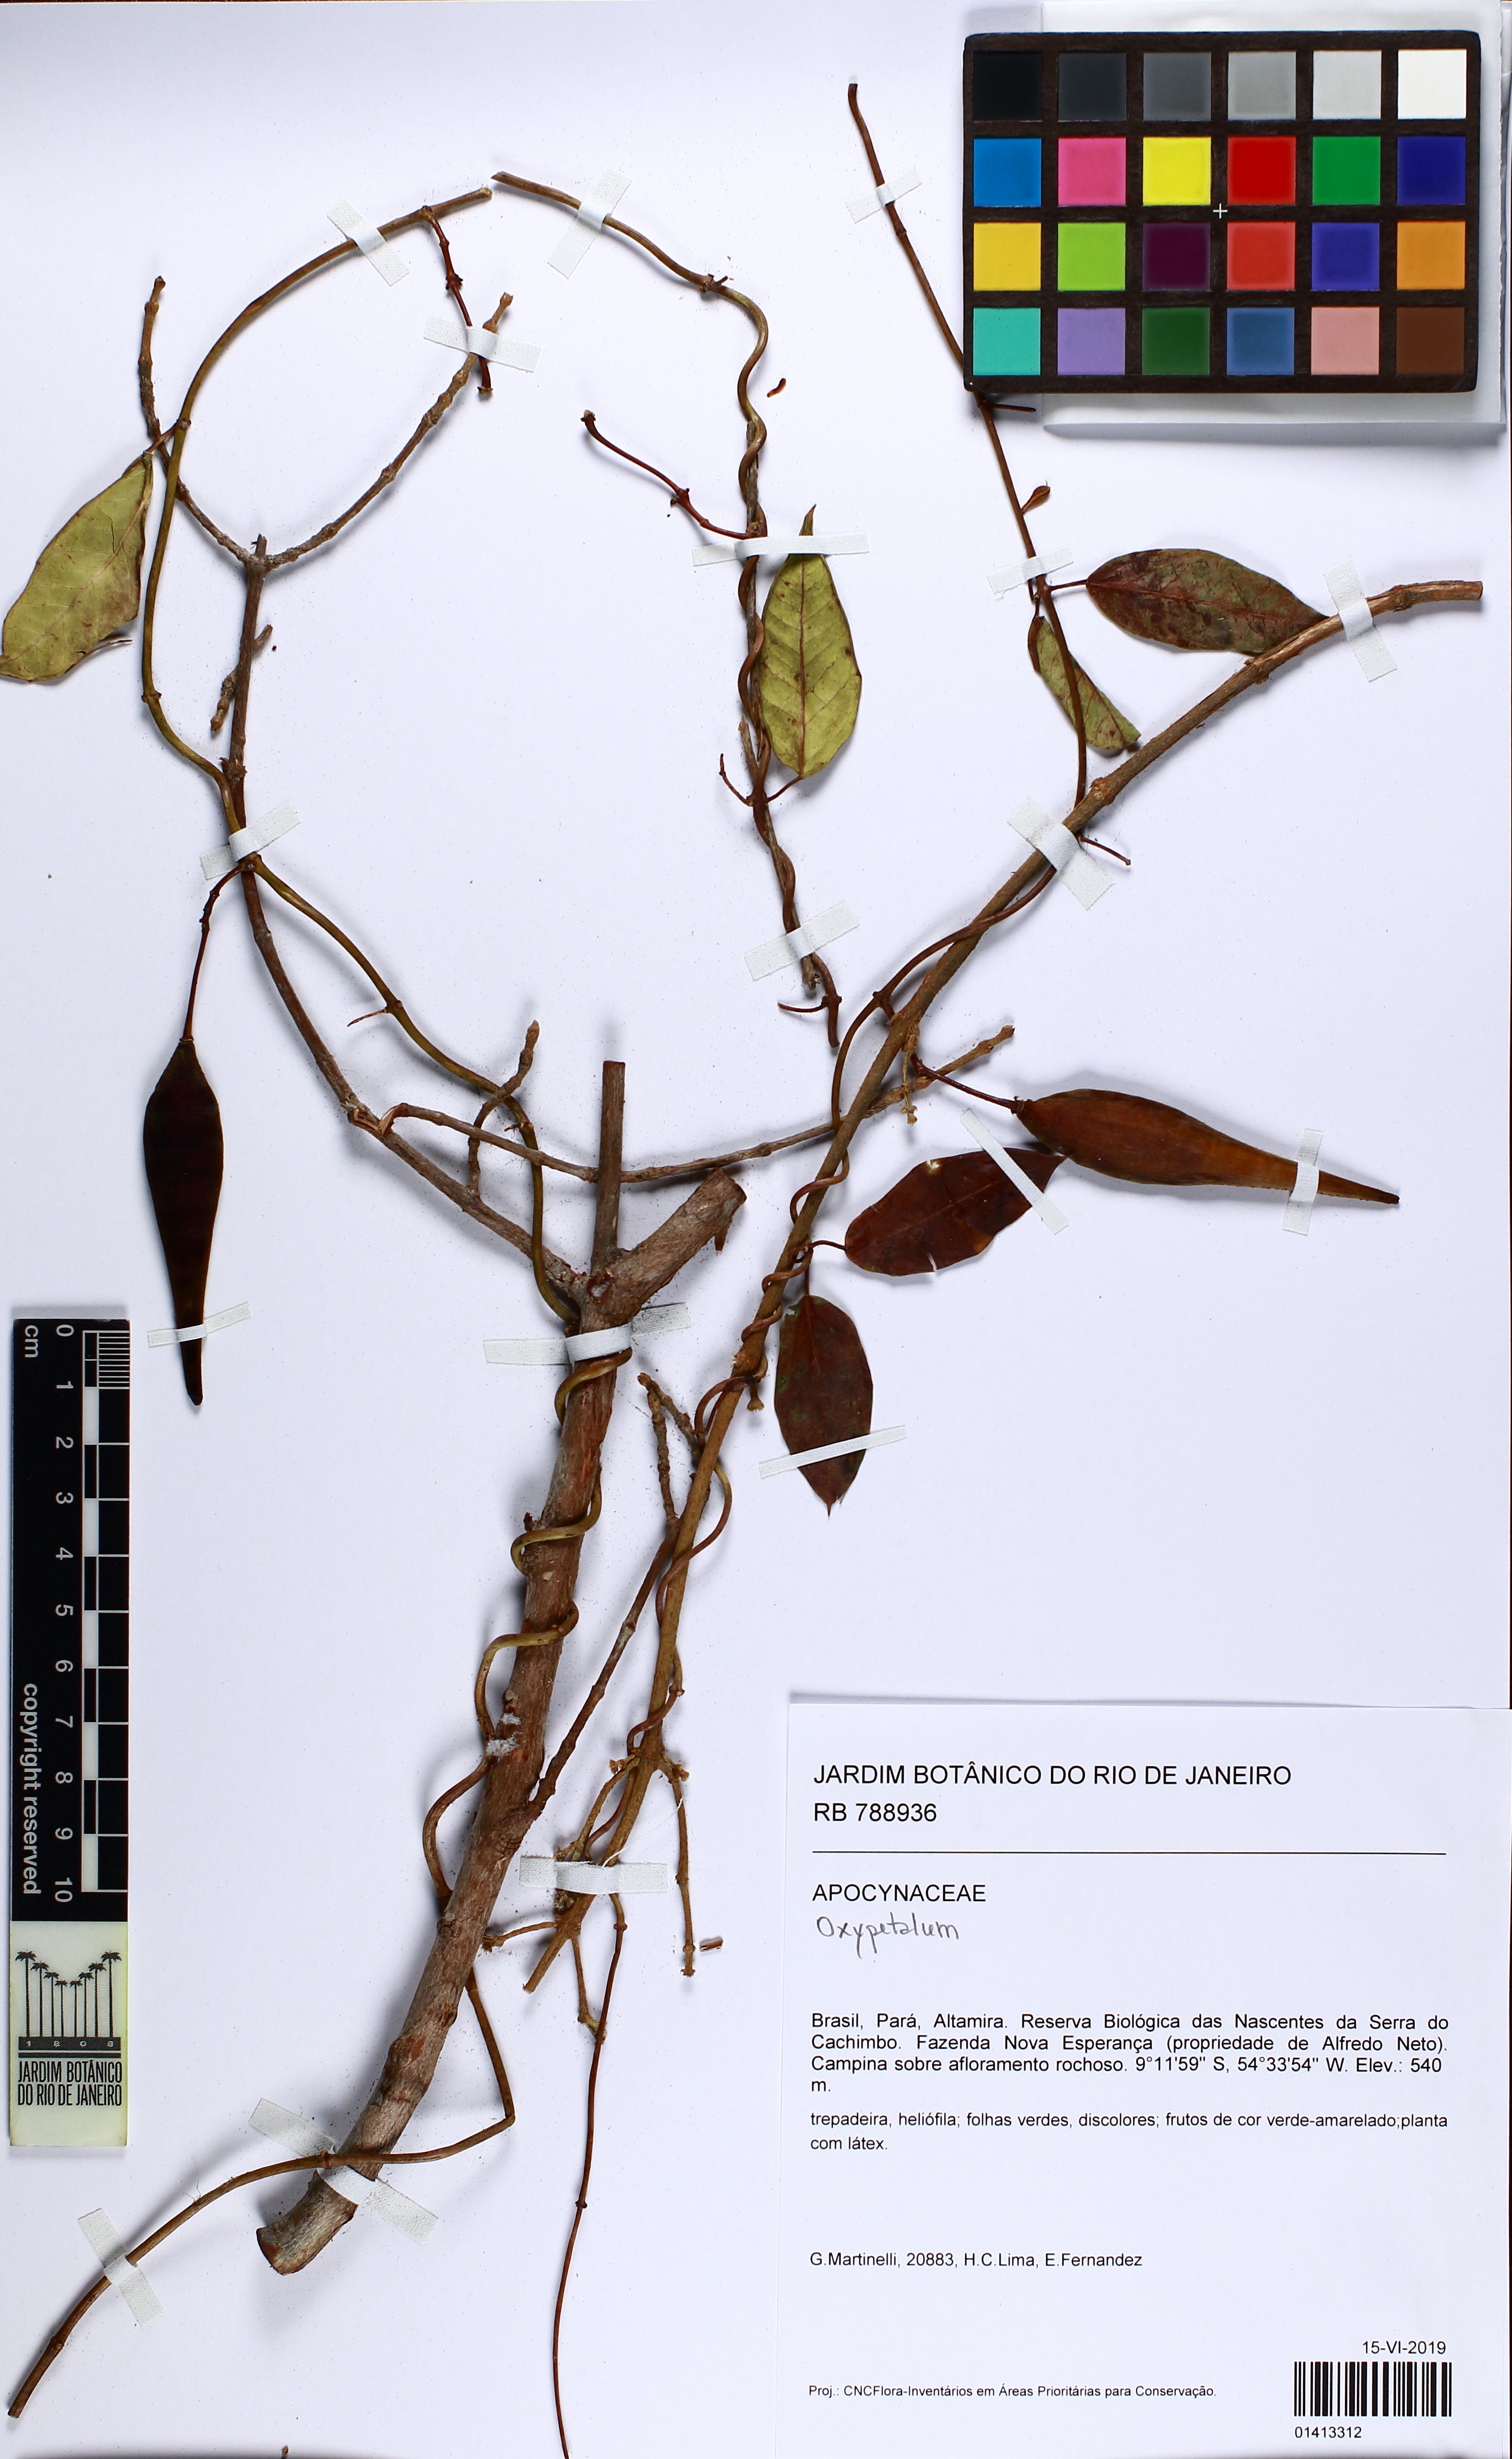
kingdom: Plantae
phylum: Tracheophyta
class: Magnoliopsida
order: Gentianales
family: Apocynaceae
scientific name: Apocynaceae
